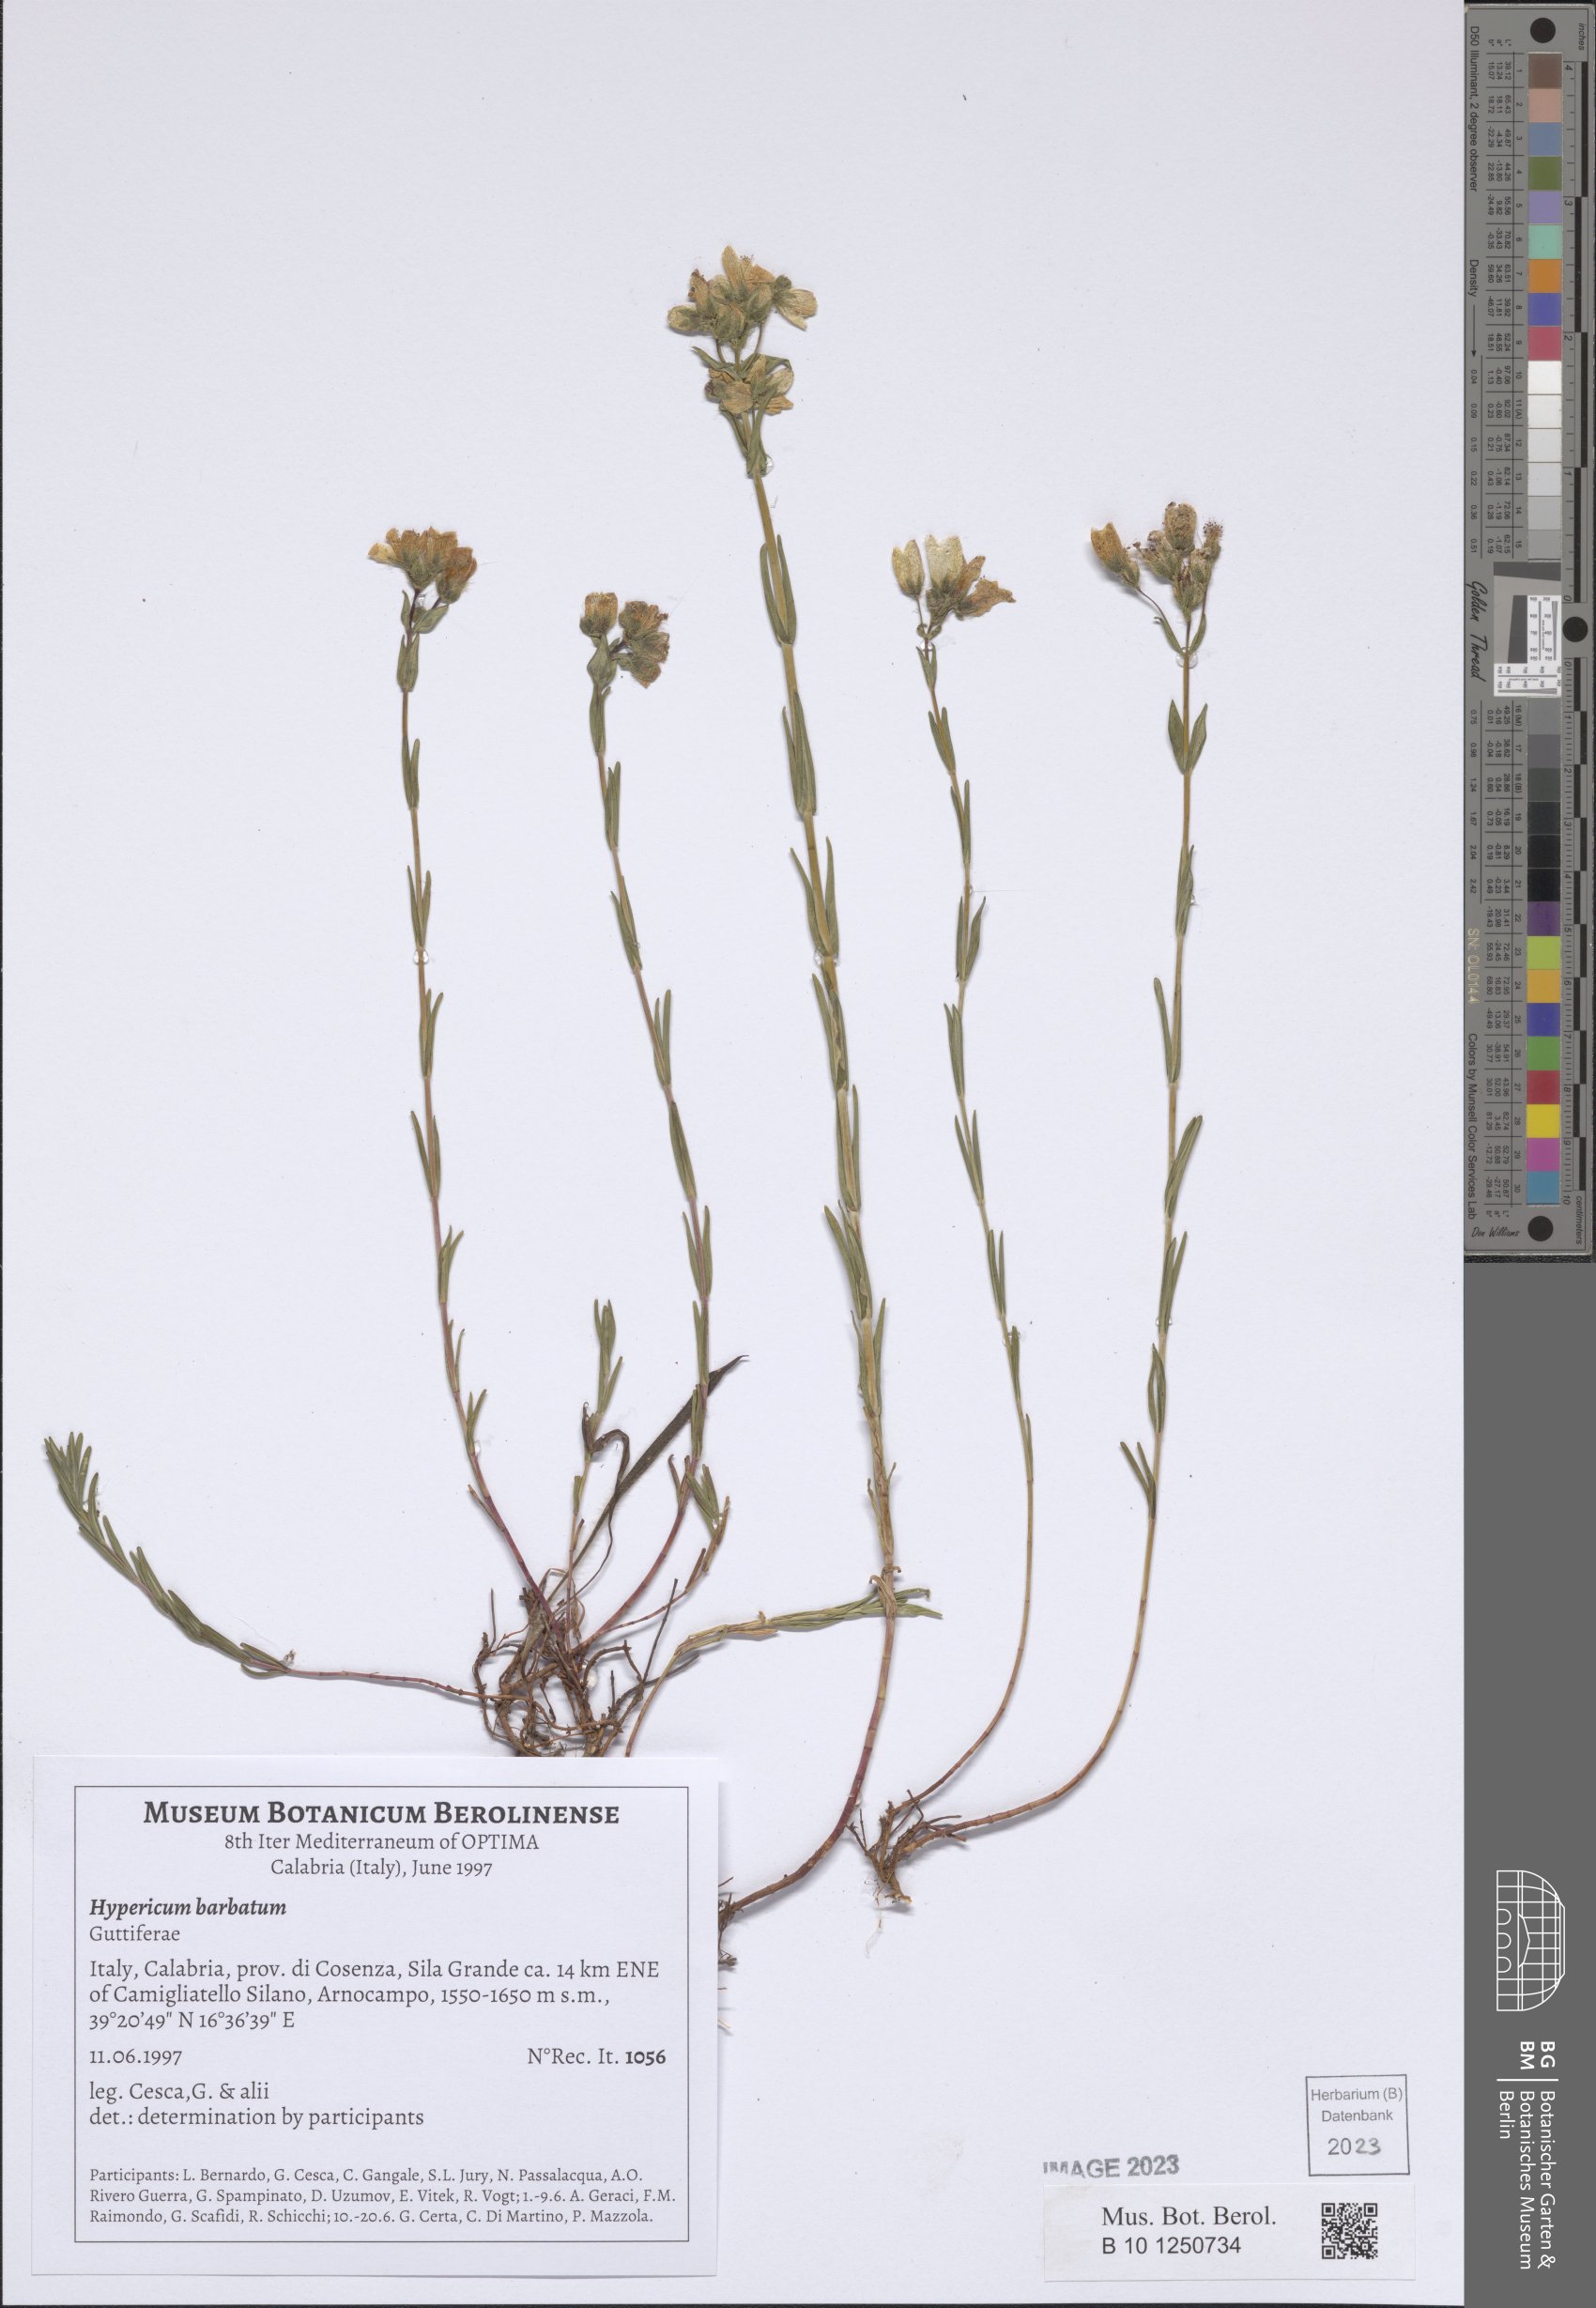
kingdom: Plantae
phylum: Tracheophyta
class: Magnoliopsida
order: Malpighiales
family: Hypericaceae
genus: Hypericum
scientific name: Hypericum barbatum
